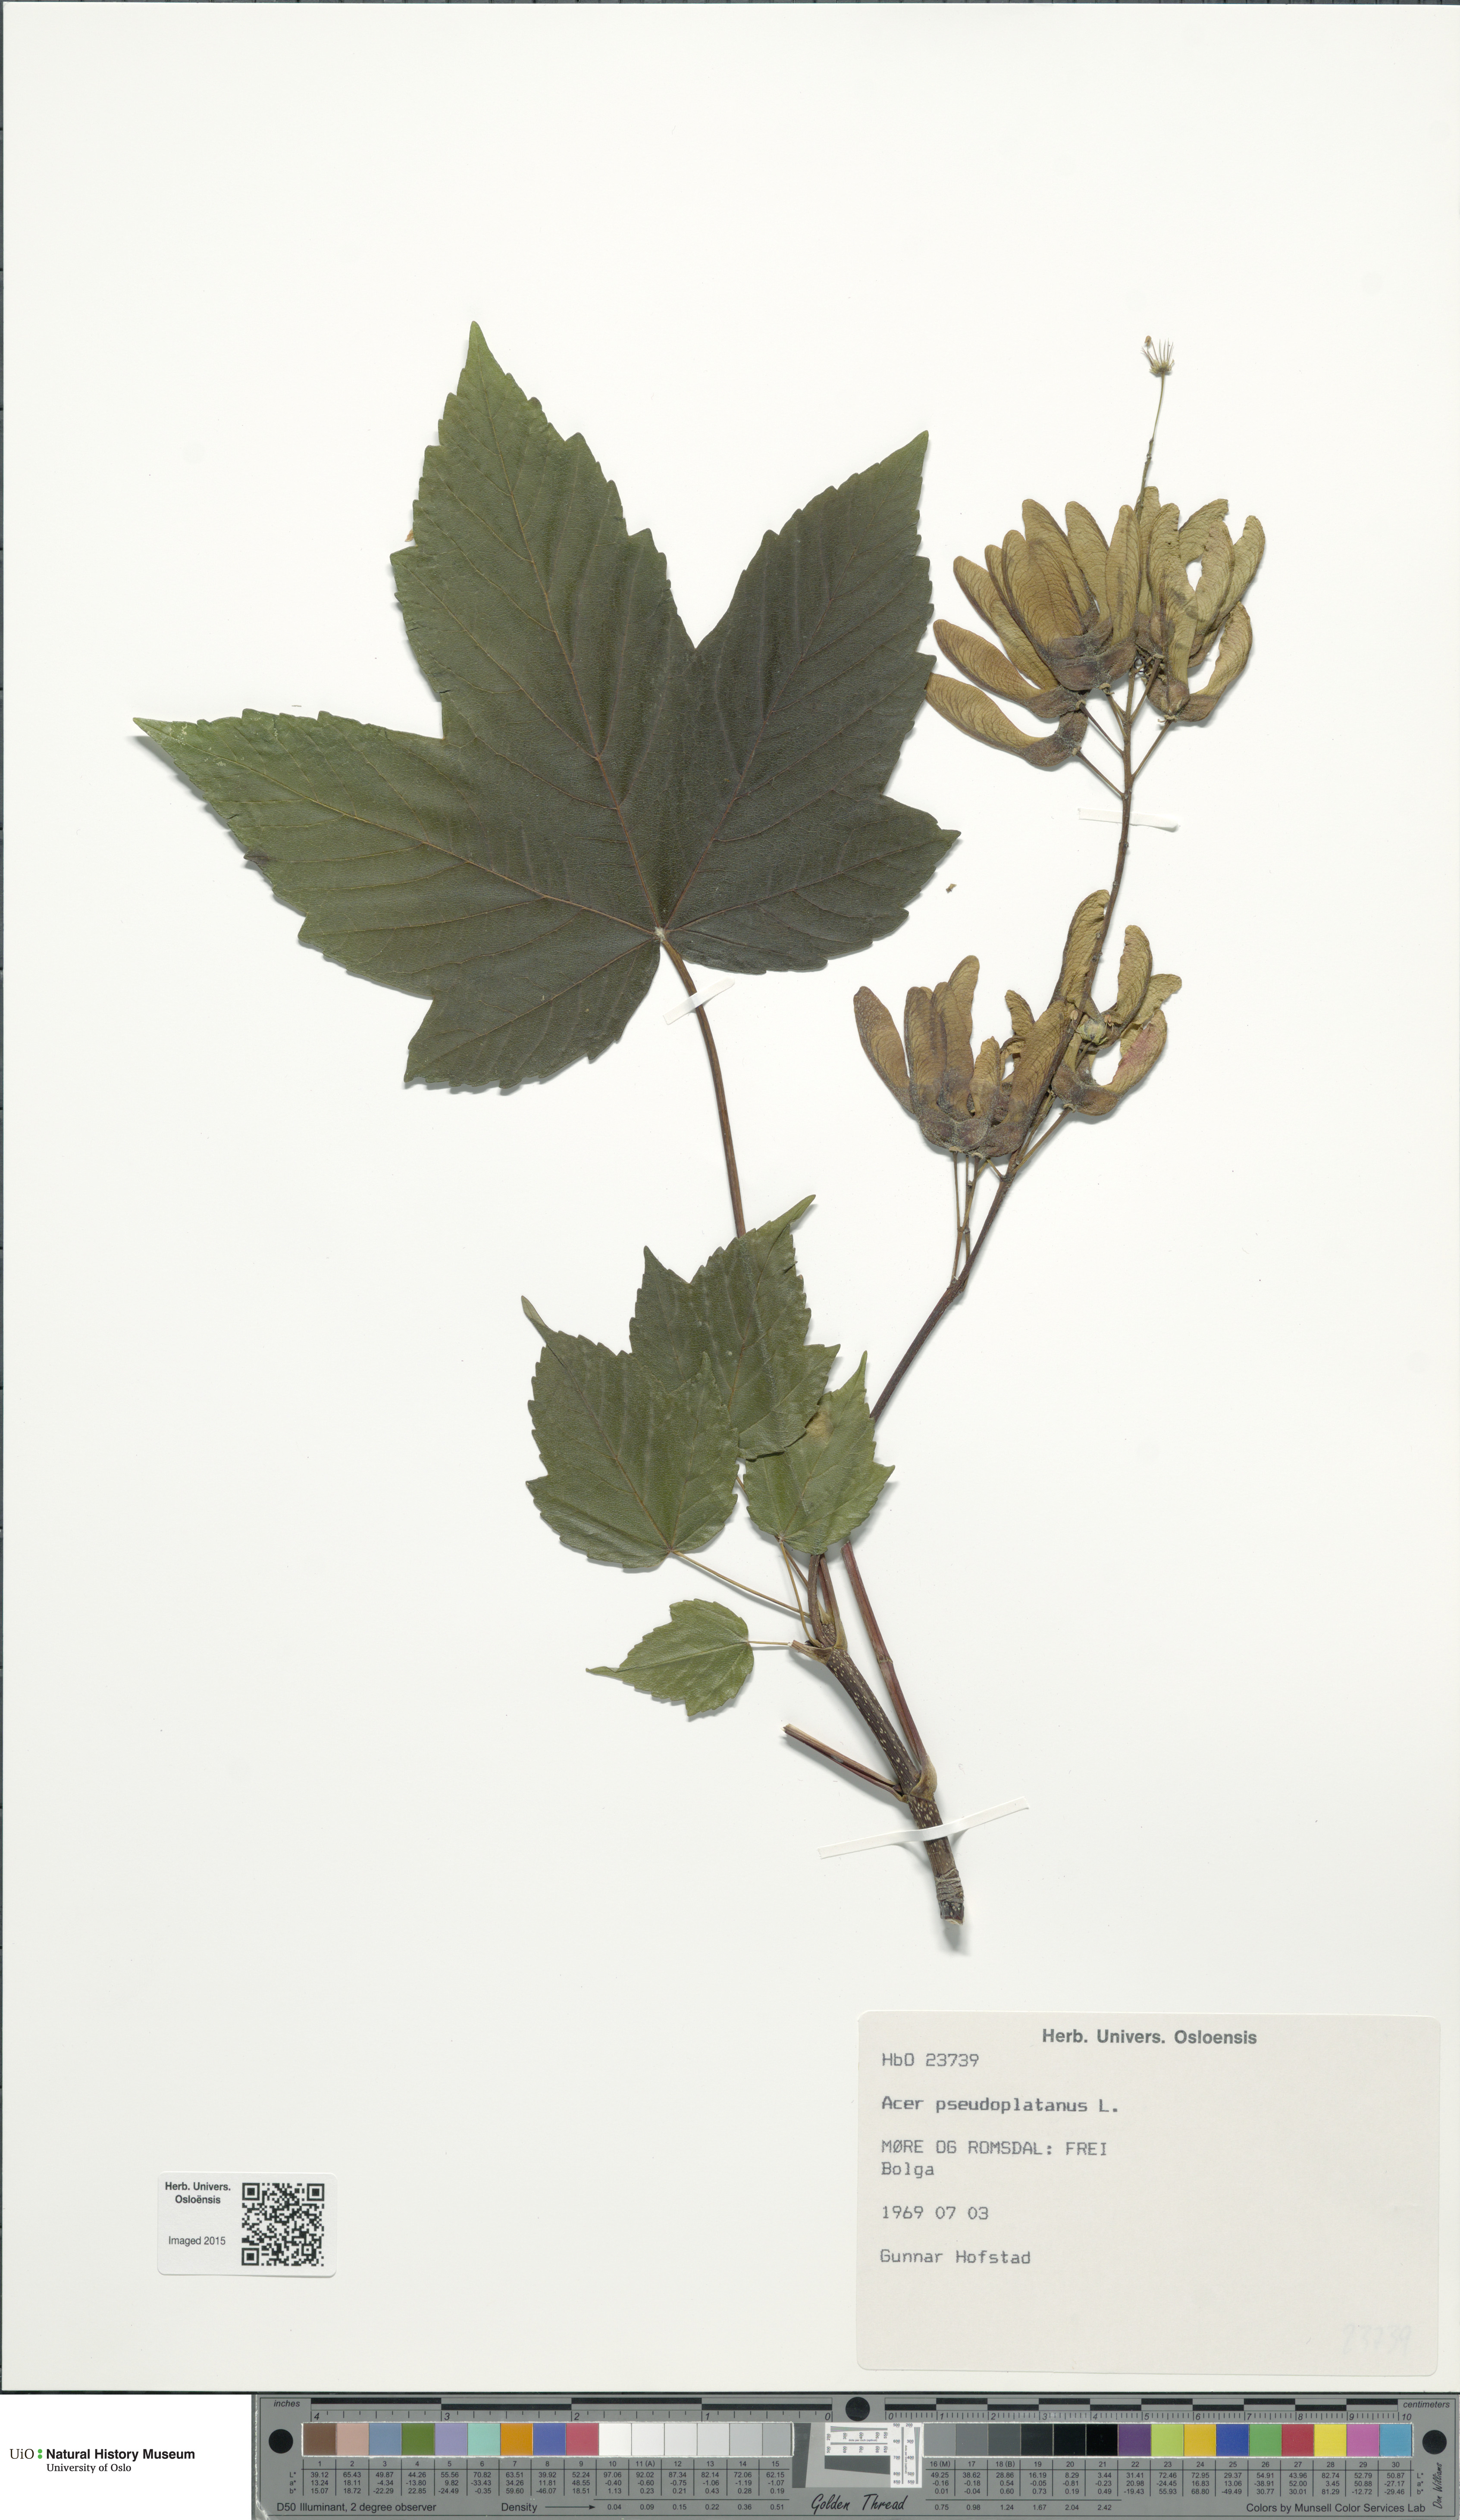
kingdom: Plantae
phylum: Tracheophyta
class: Magnoliopsida
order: Sapindales
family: Sapindaceae
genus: Acer
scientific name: Acer pseudoplatanus
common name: Sycamore
